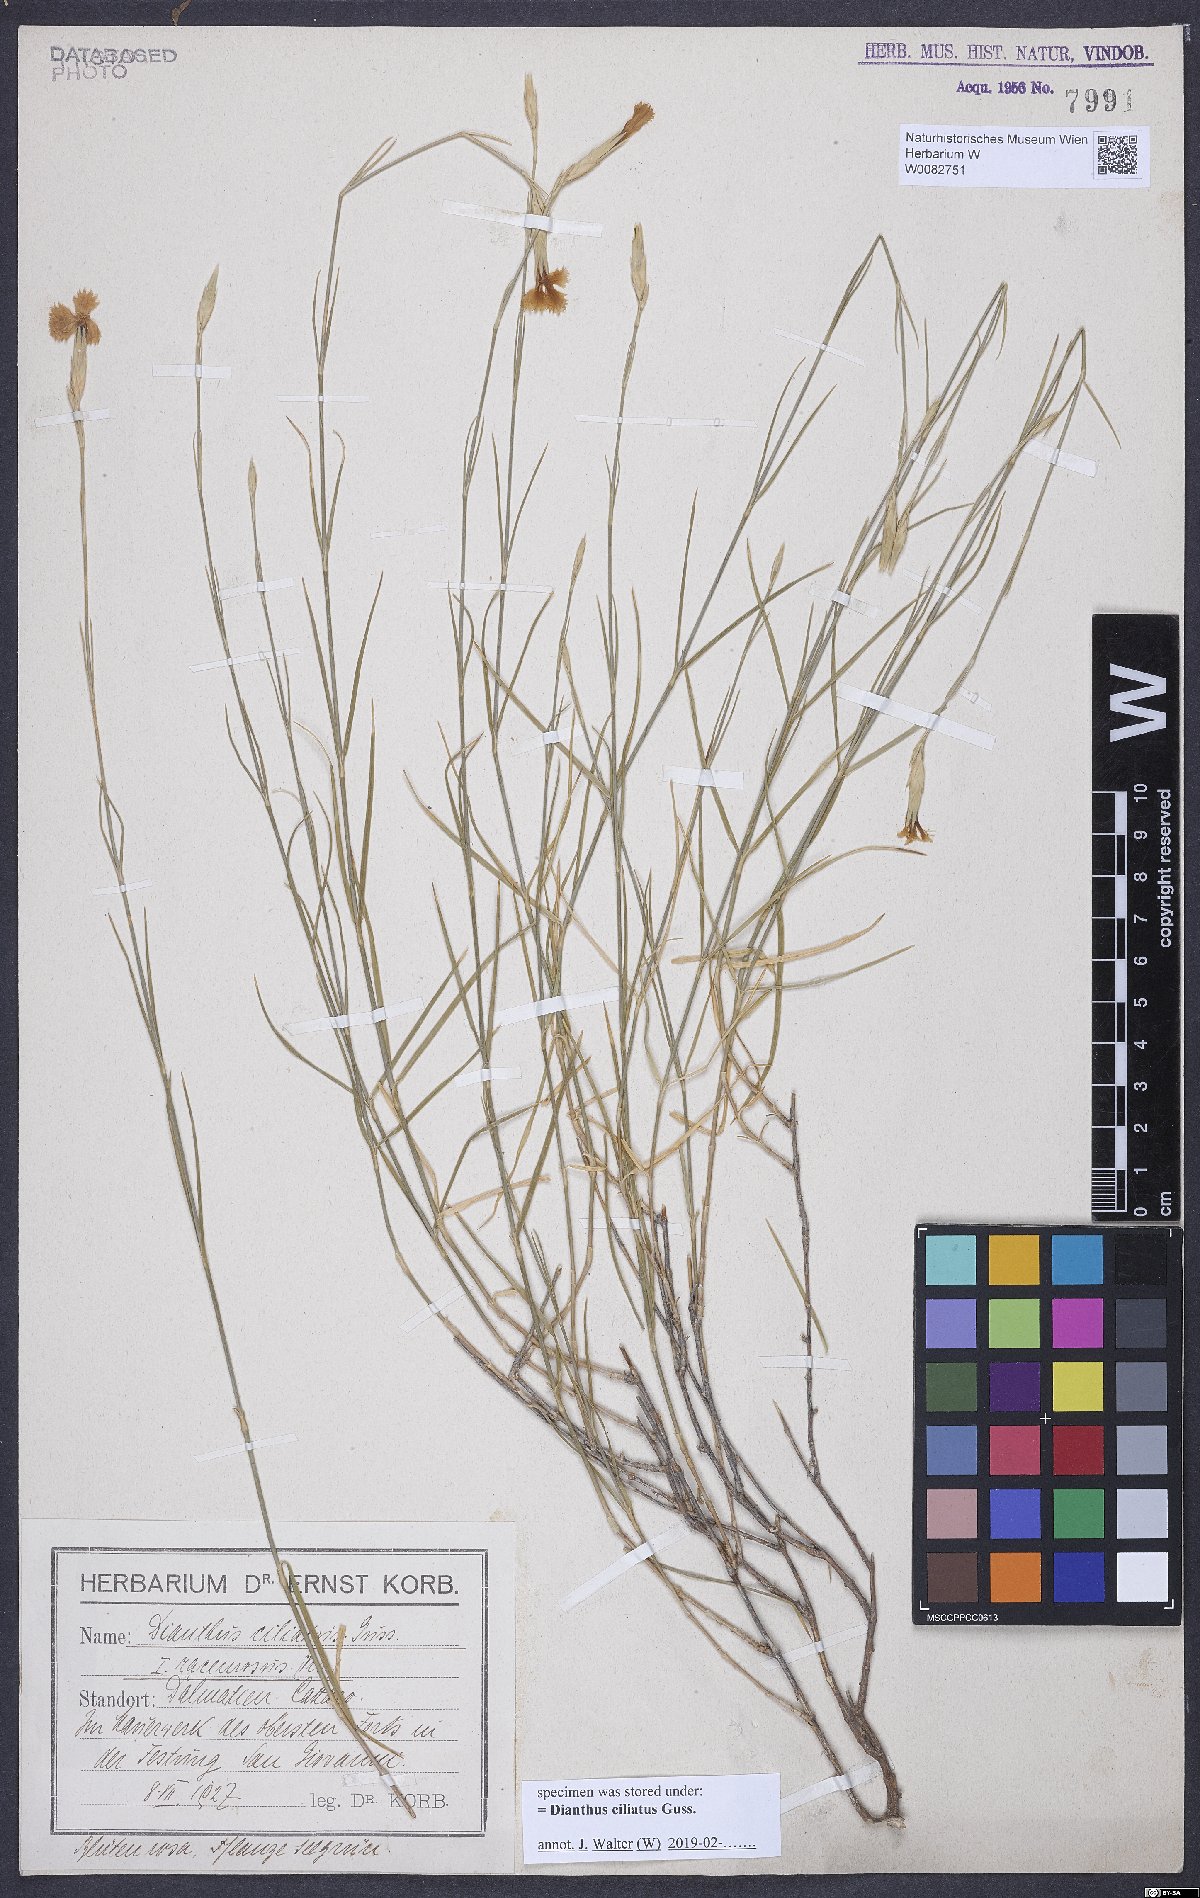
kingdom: Plantae
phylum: Tracheophyta
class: Magnoliopsida
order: Caryophyllales
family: Caryophyllaceae
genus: Dianthus
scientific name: Dianthus ciliatus
